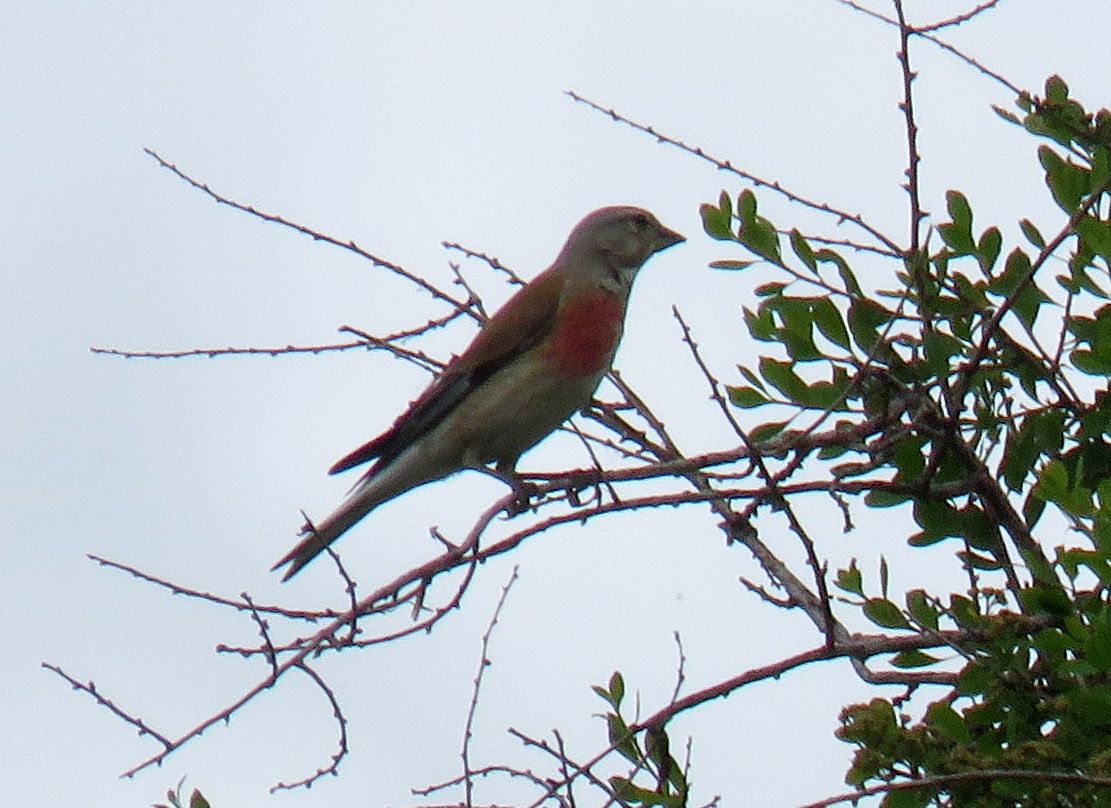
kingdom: Animalia
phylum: Chordata
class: Aves
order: Passeriformes
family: Fringillidae
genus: Linaria
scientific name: Linaria cannabina
